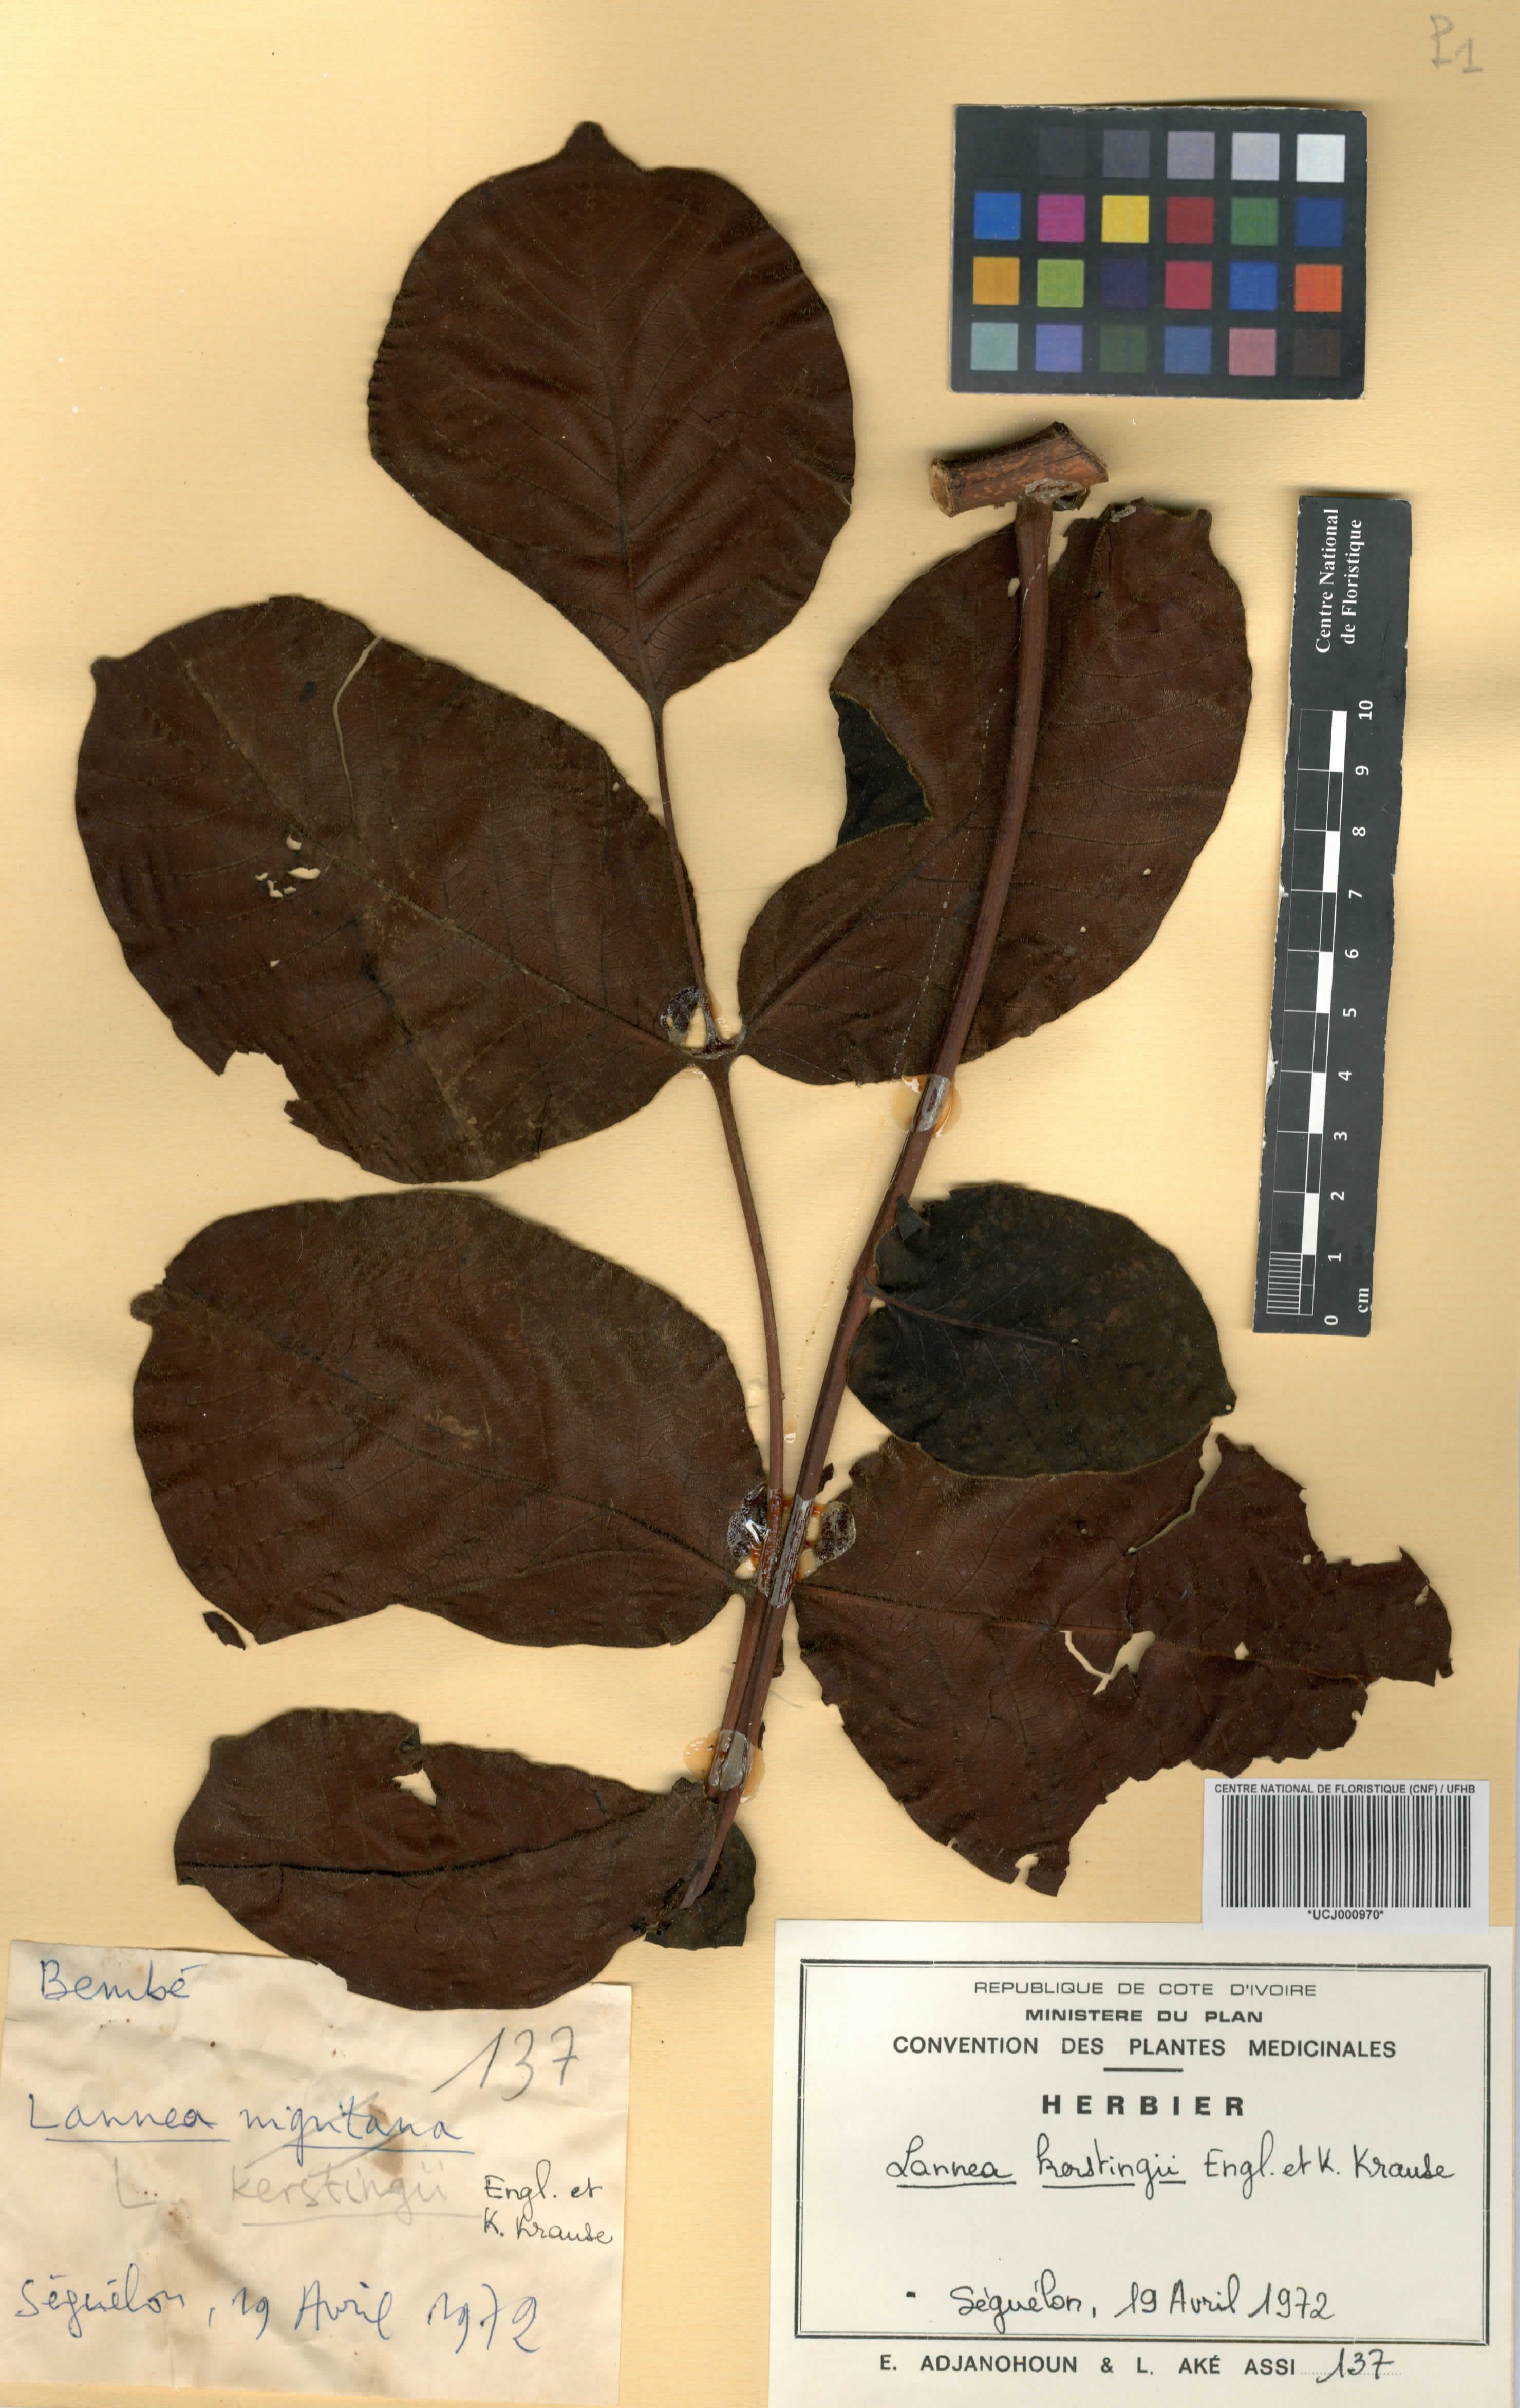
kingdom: Plantae
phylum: Tracheophyta
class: Magnoliopsida
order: Sapindales
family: Anacardiaceae
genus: Lannea
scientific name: Lannea barteri
